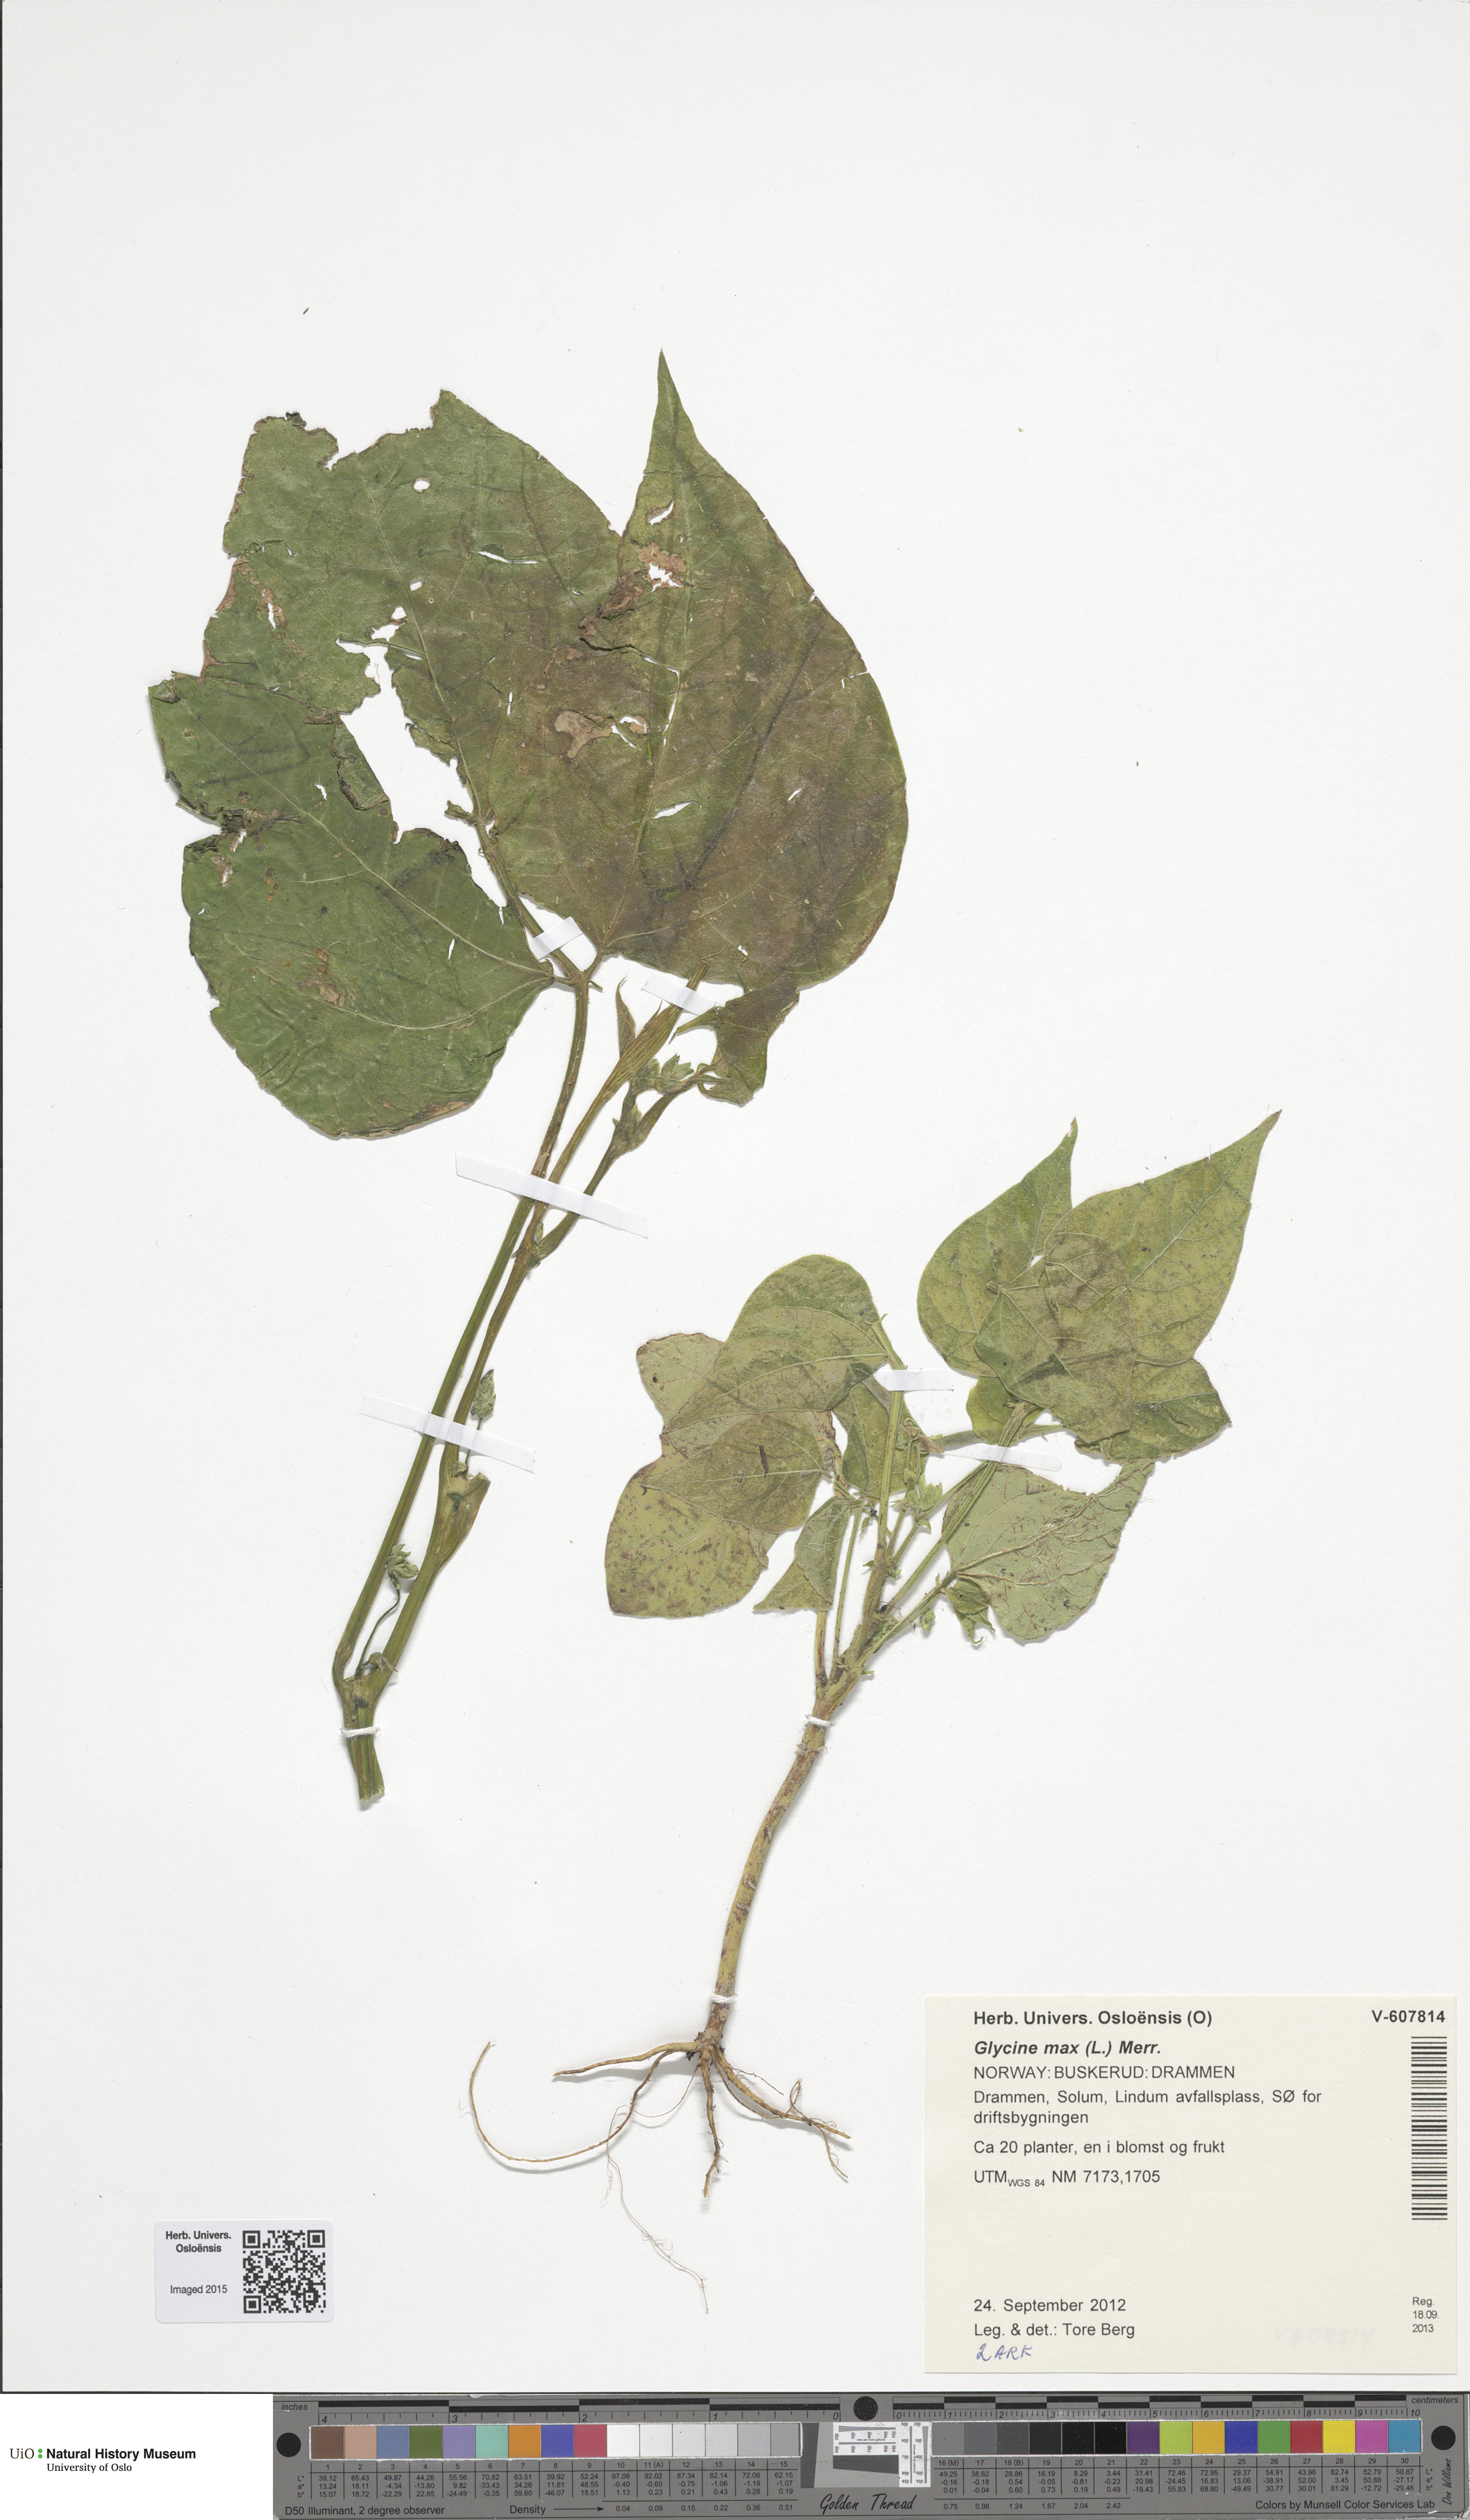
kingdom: Plantae
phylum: Tracheophyta
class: Magnoliopsida
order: Fabales
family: Fabaceae
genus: Glycine
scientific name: Glycine max
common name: Soya-bean
